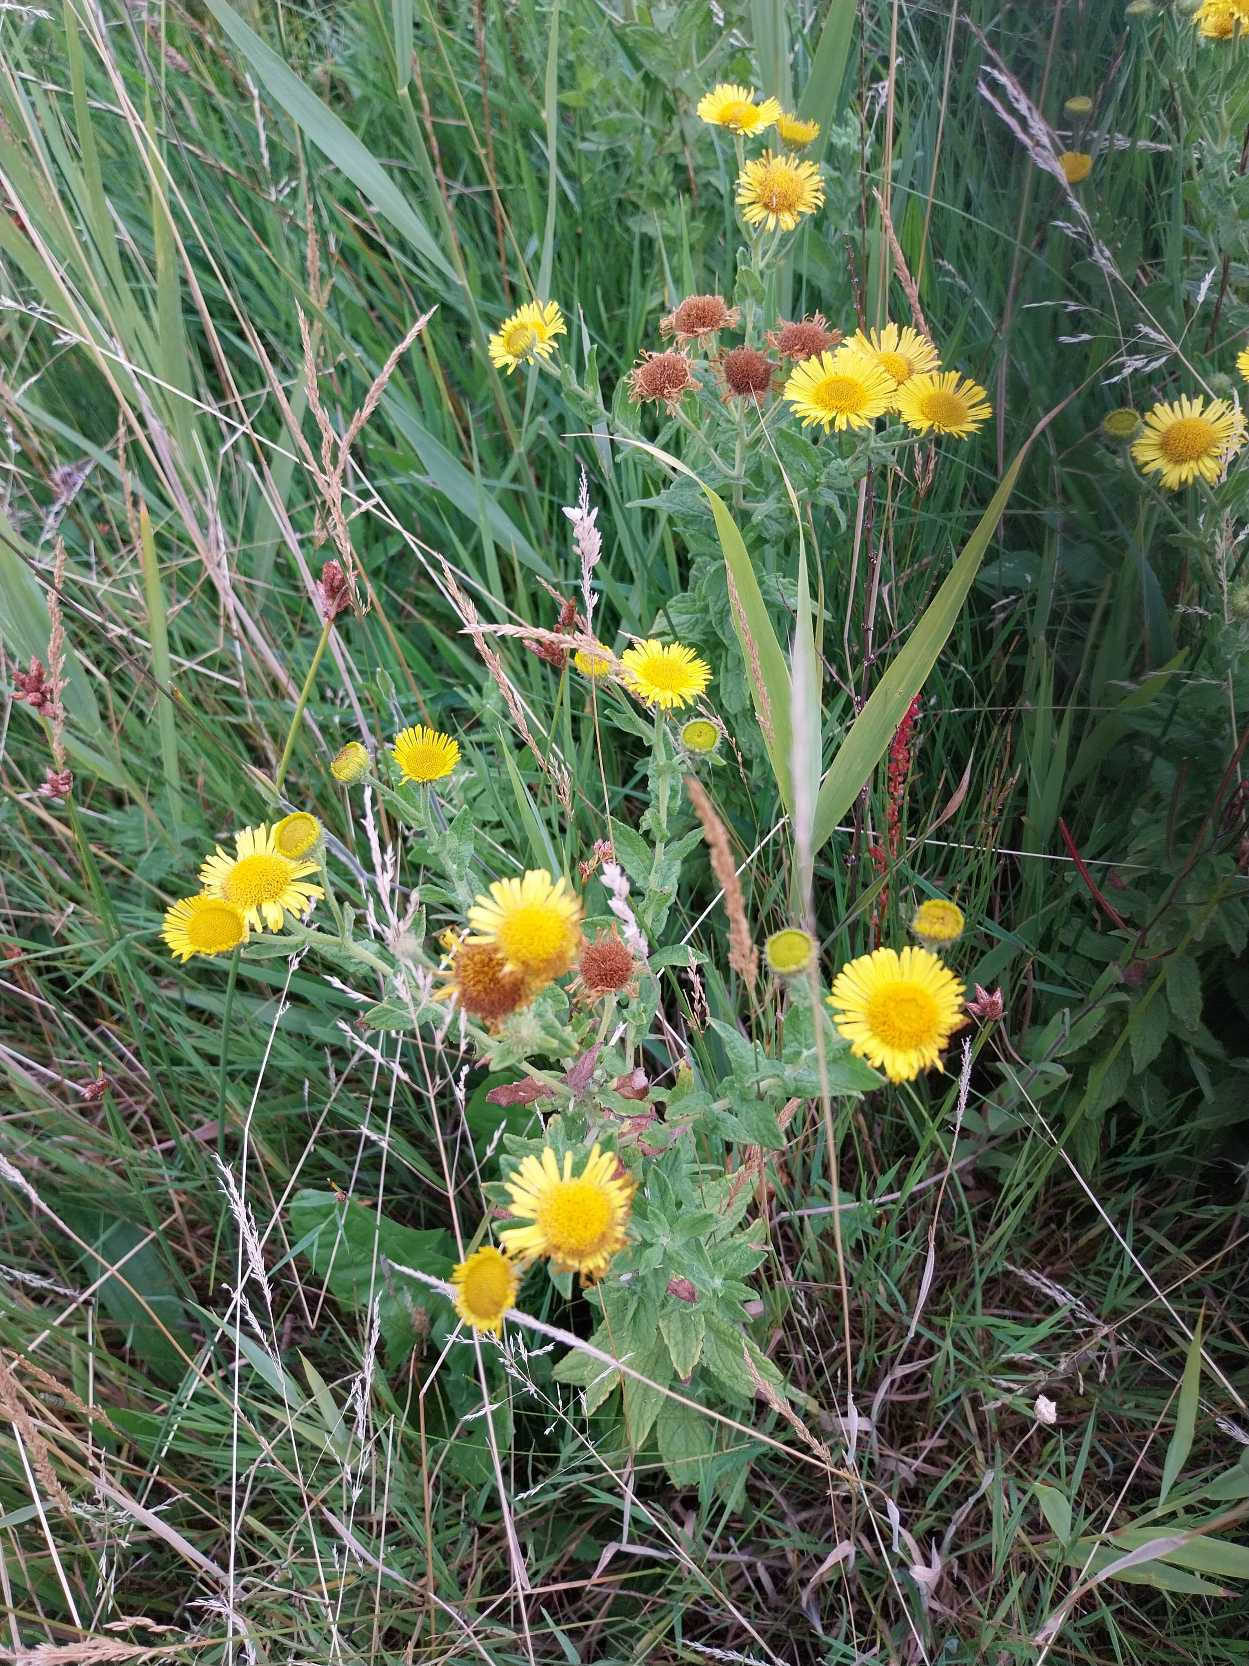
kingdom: Plantae
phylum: Tracheophyta
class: Magnoliopsida
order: Asterales
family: Asteraceae
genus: Pulicaria
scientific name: Pulicaria dysenterica
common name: Strand-loppeurt
